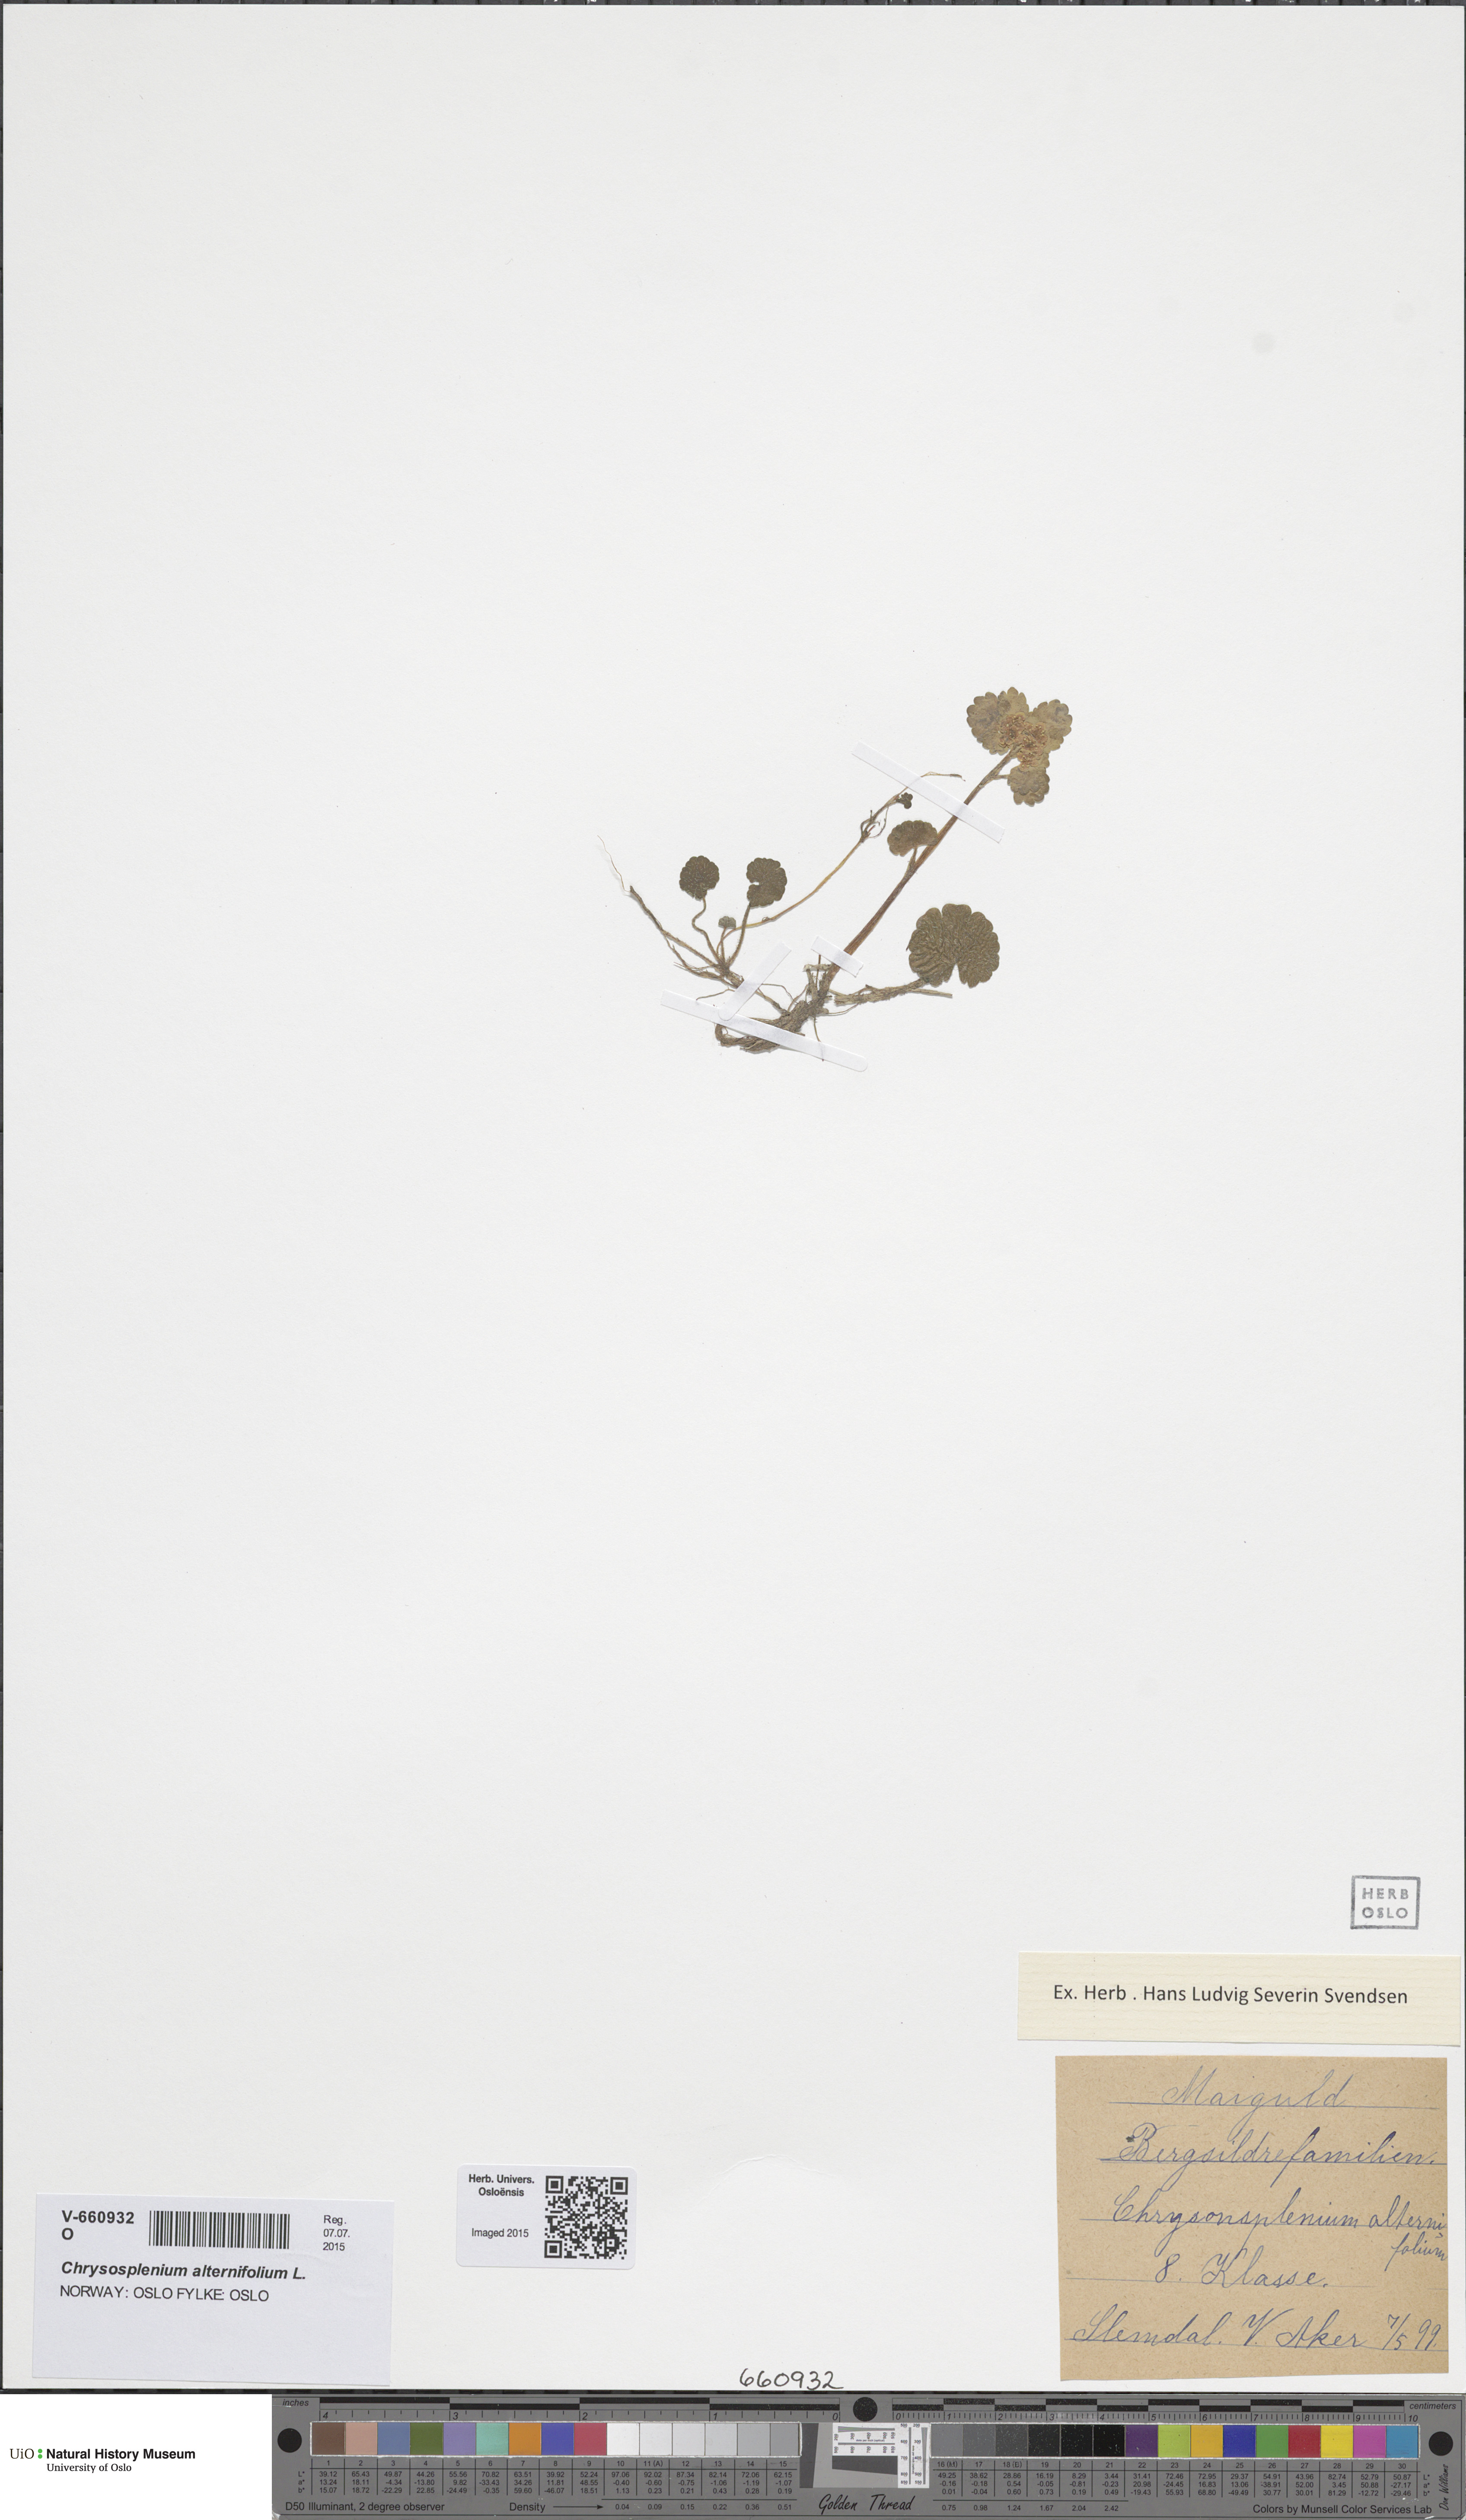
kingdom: Plantae
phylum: Tracheophyta
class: Magnoliopsida
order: Saxifragales
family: Saxifragaceae
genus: Chrysosplenium
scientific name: Chrysosplenium alternifolium
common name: Alternate-leaved golden-saxifrage
